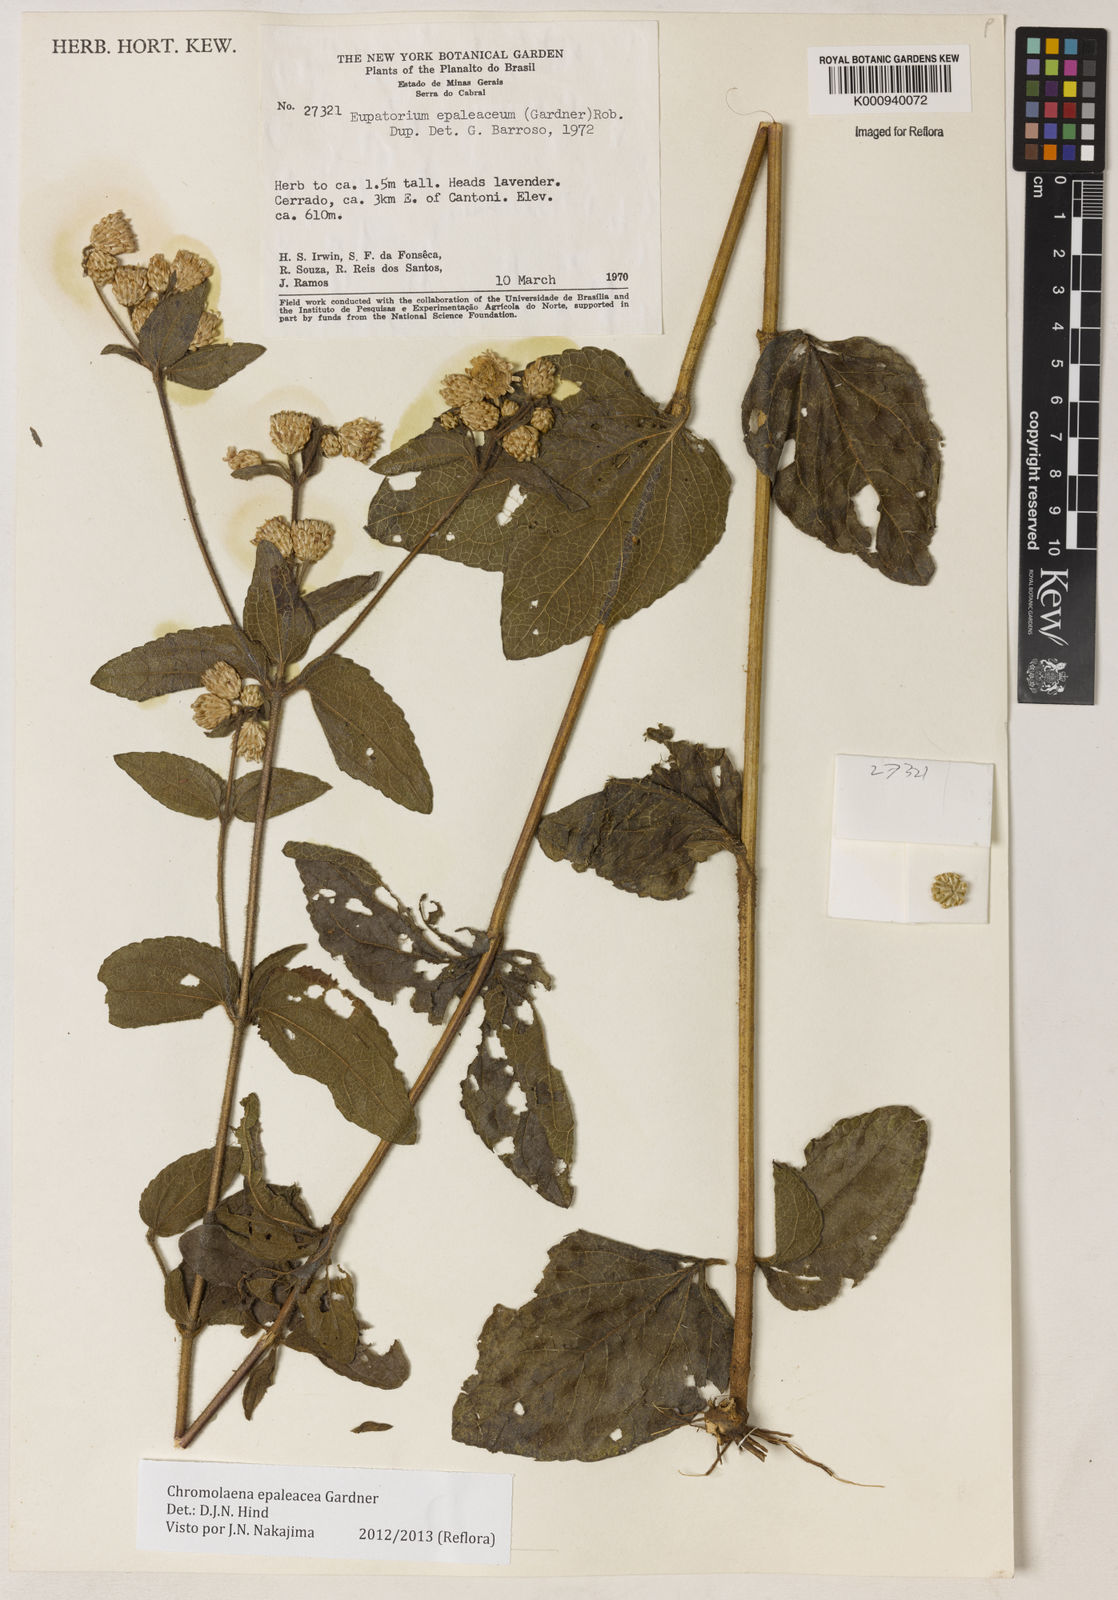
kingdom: Plantae
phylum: Tracheophyta
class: Magnoliopsida
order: Asterales
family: Asteraceae
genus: Chromolaena
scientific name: Chromolaena epaleacea
